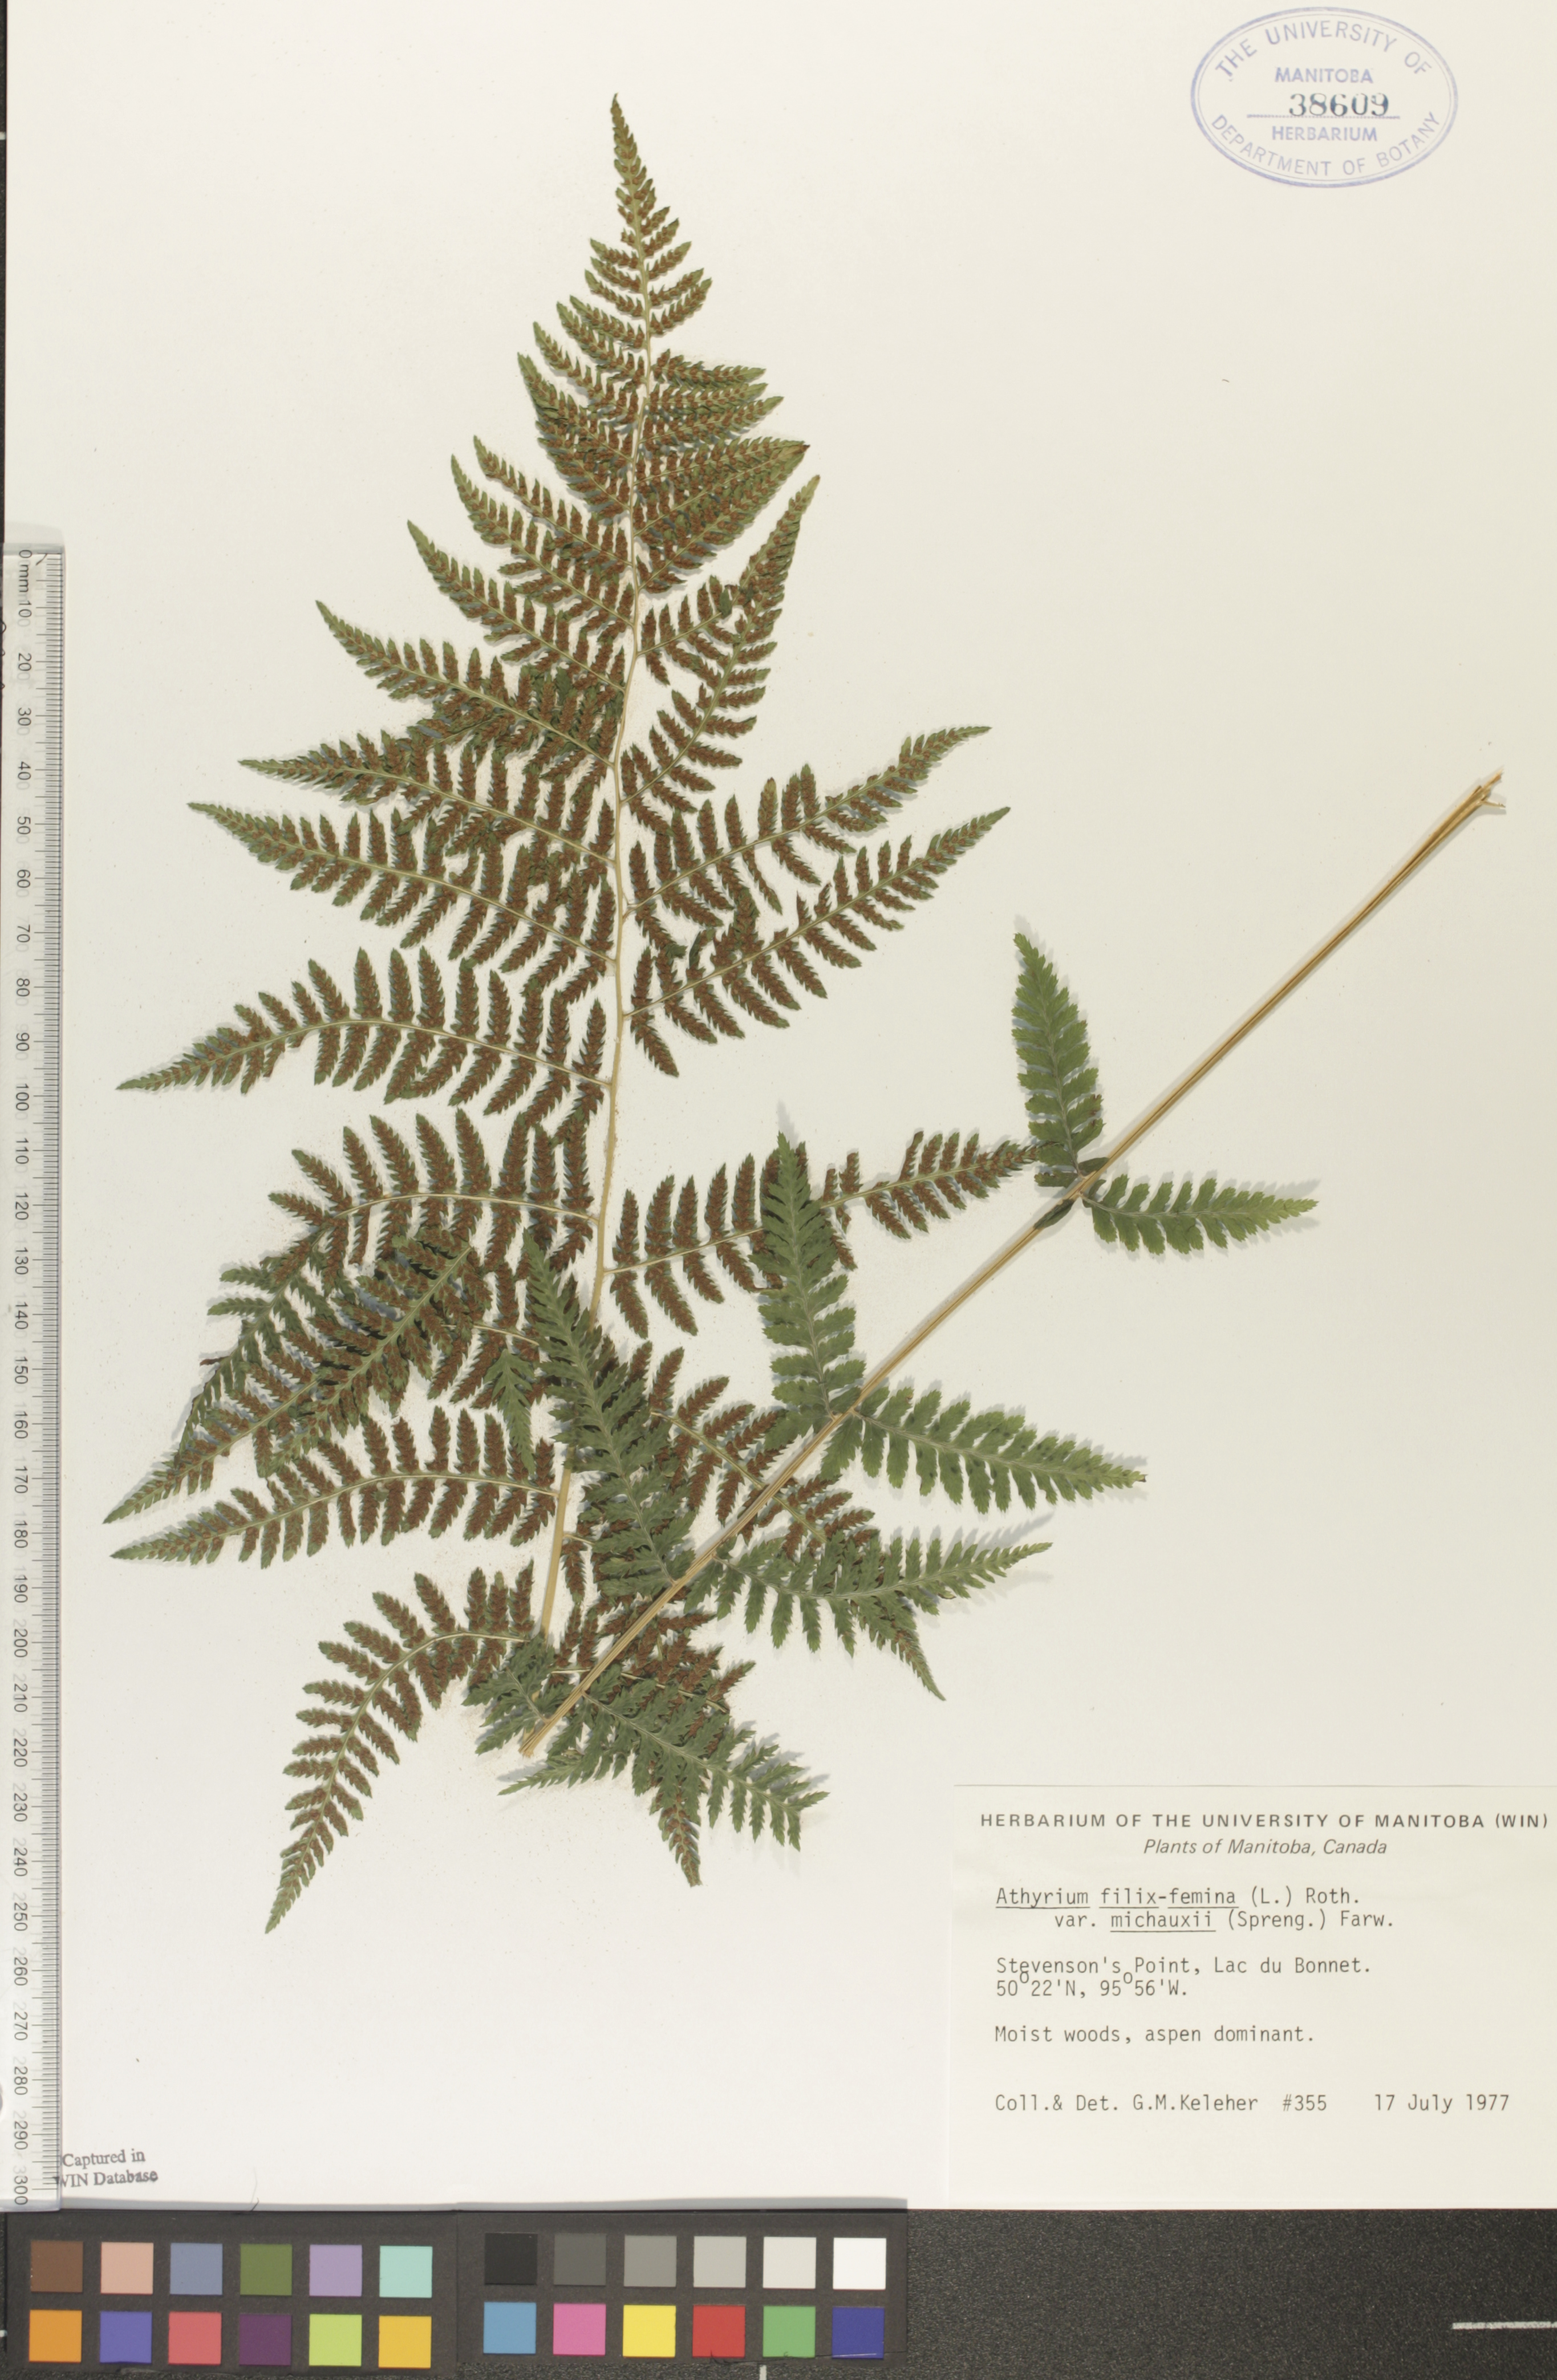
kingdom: Plantae
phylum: Tracheophyta
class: Polypodiopsida
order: Polypodiales
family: Athyriaceae
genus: Athyrium
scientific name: Athyrium angustum
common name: Northern lady fern
